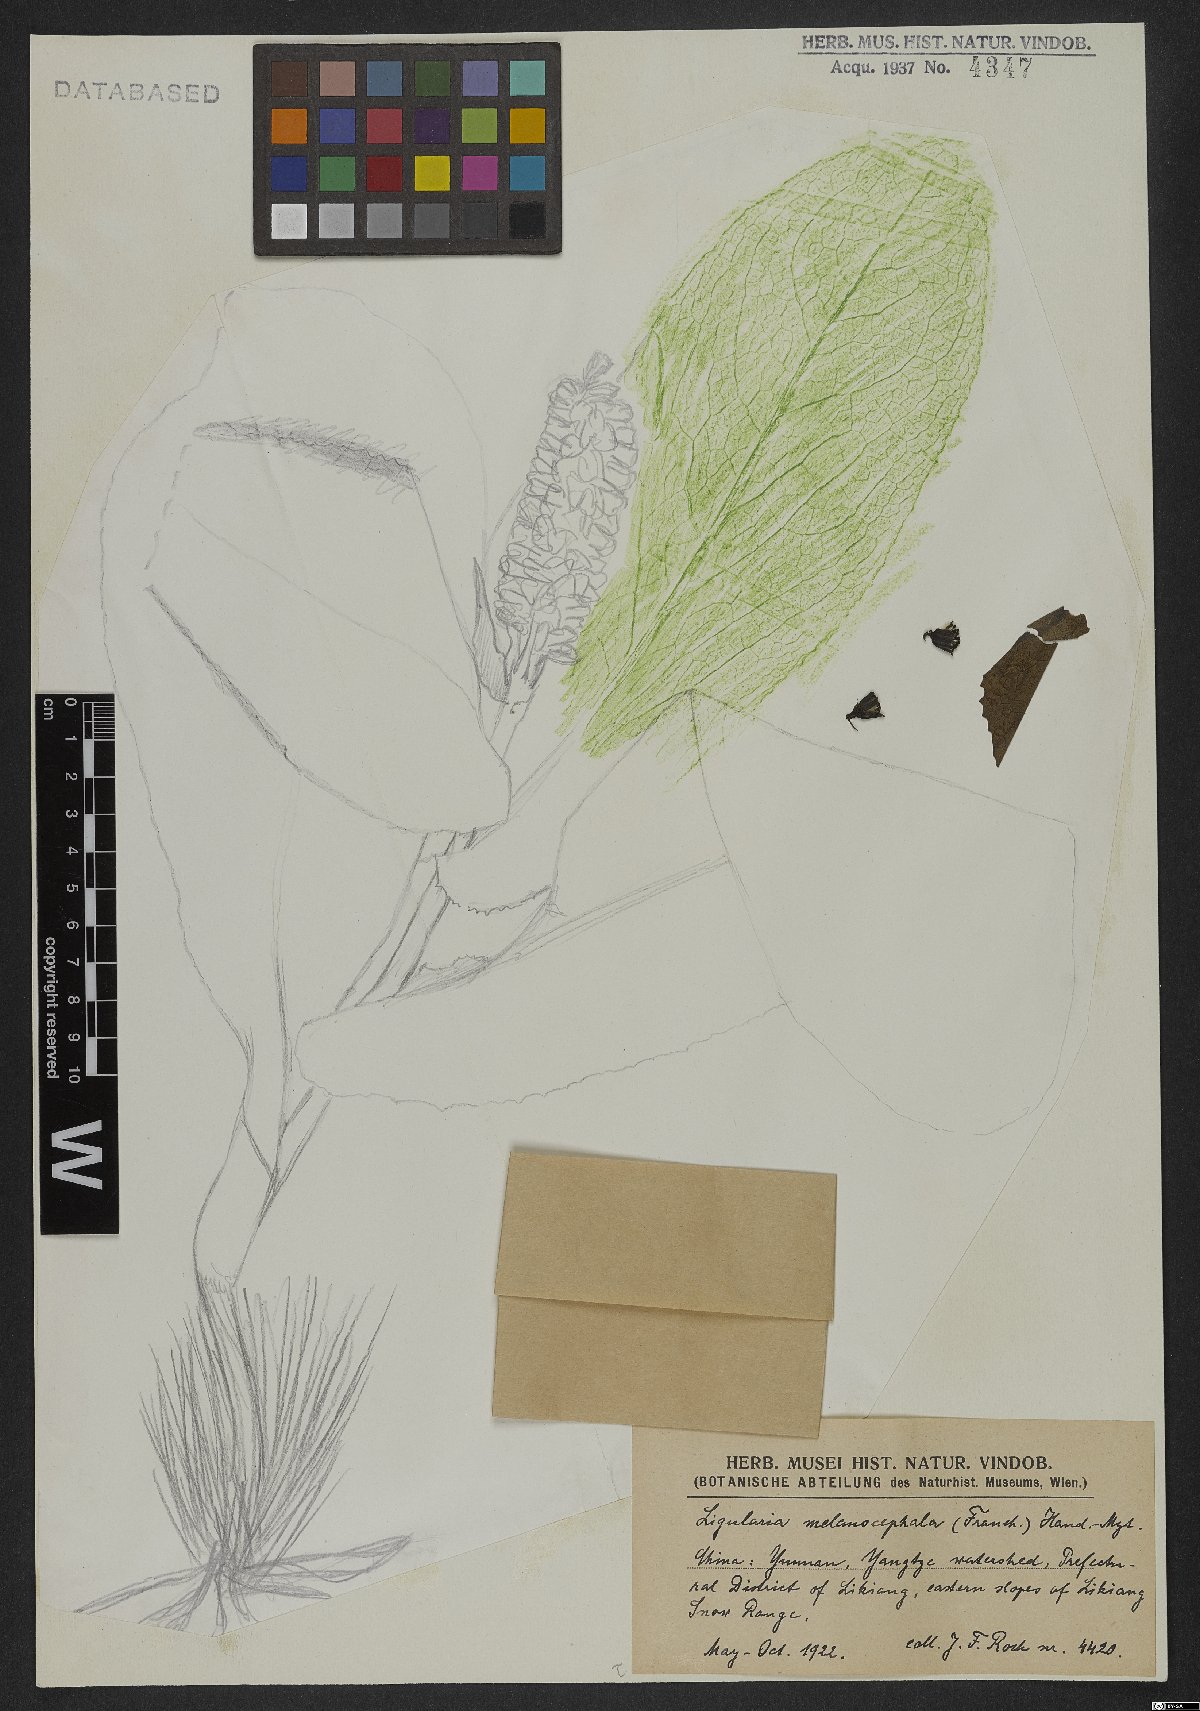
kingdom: Plantae
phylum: Tracheophyta
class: Magnoliopsida
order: Asterales
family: Asteraceae
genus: Ligularia
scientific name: Ligularia melanocephala
